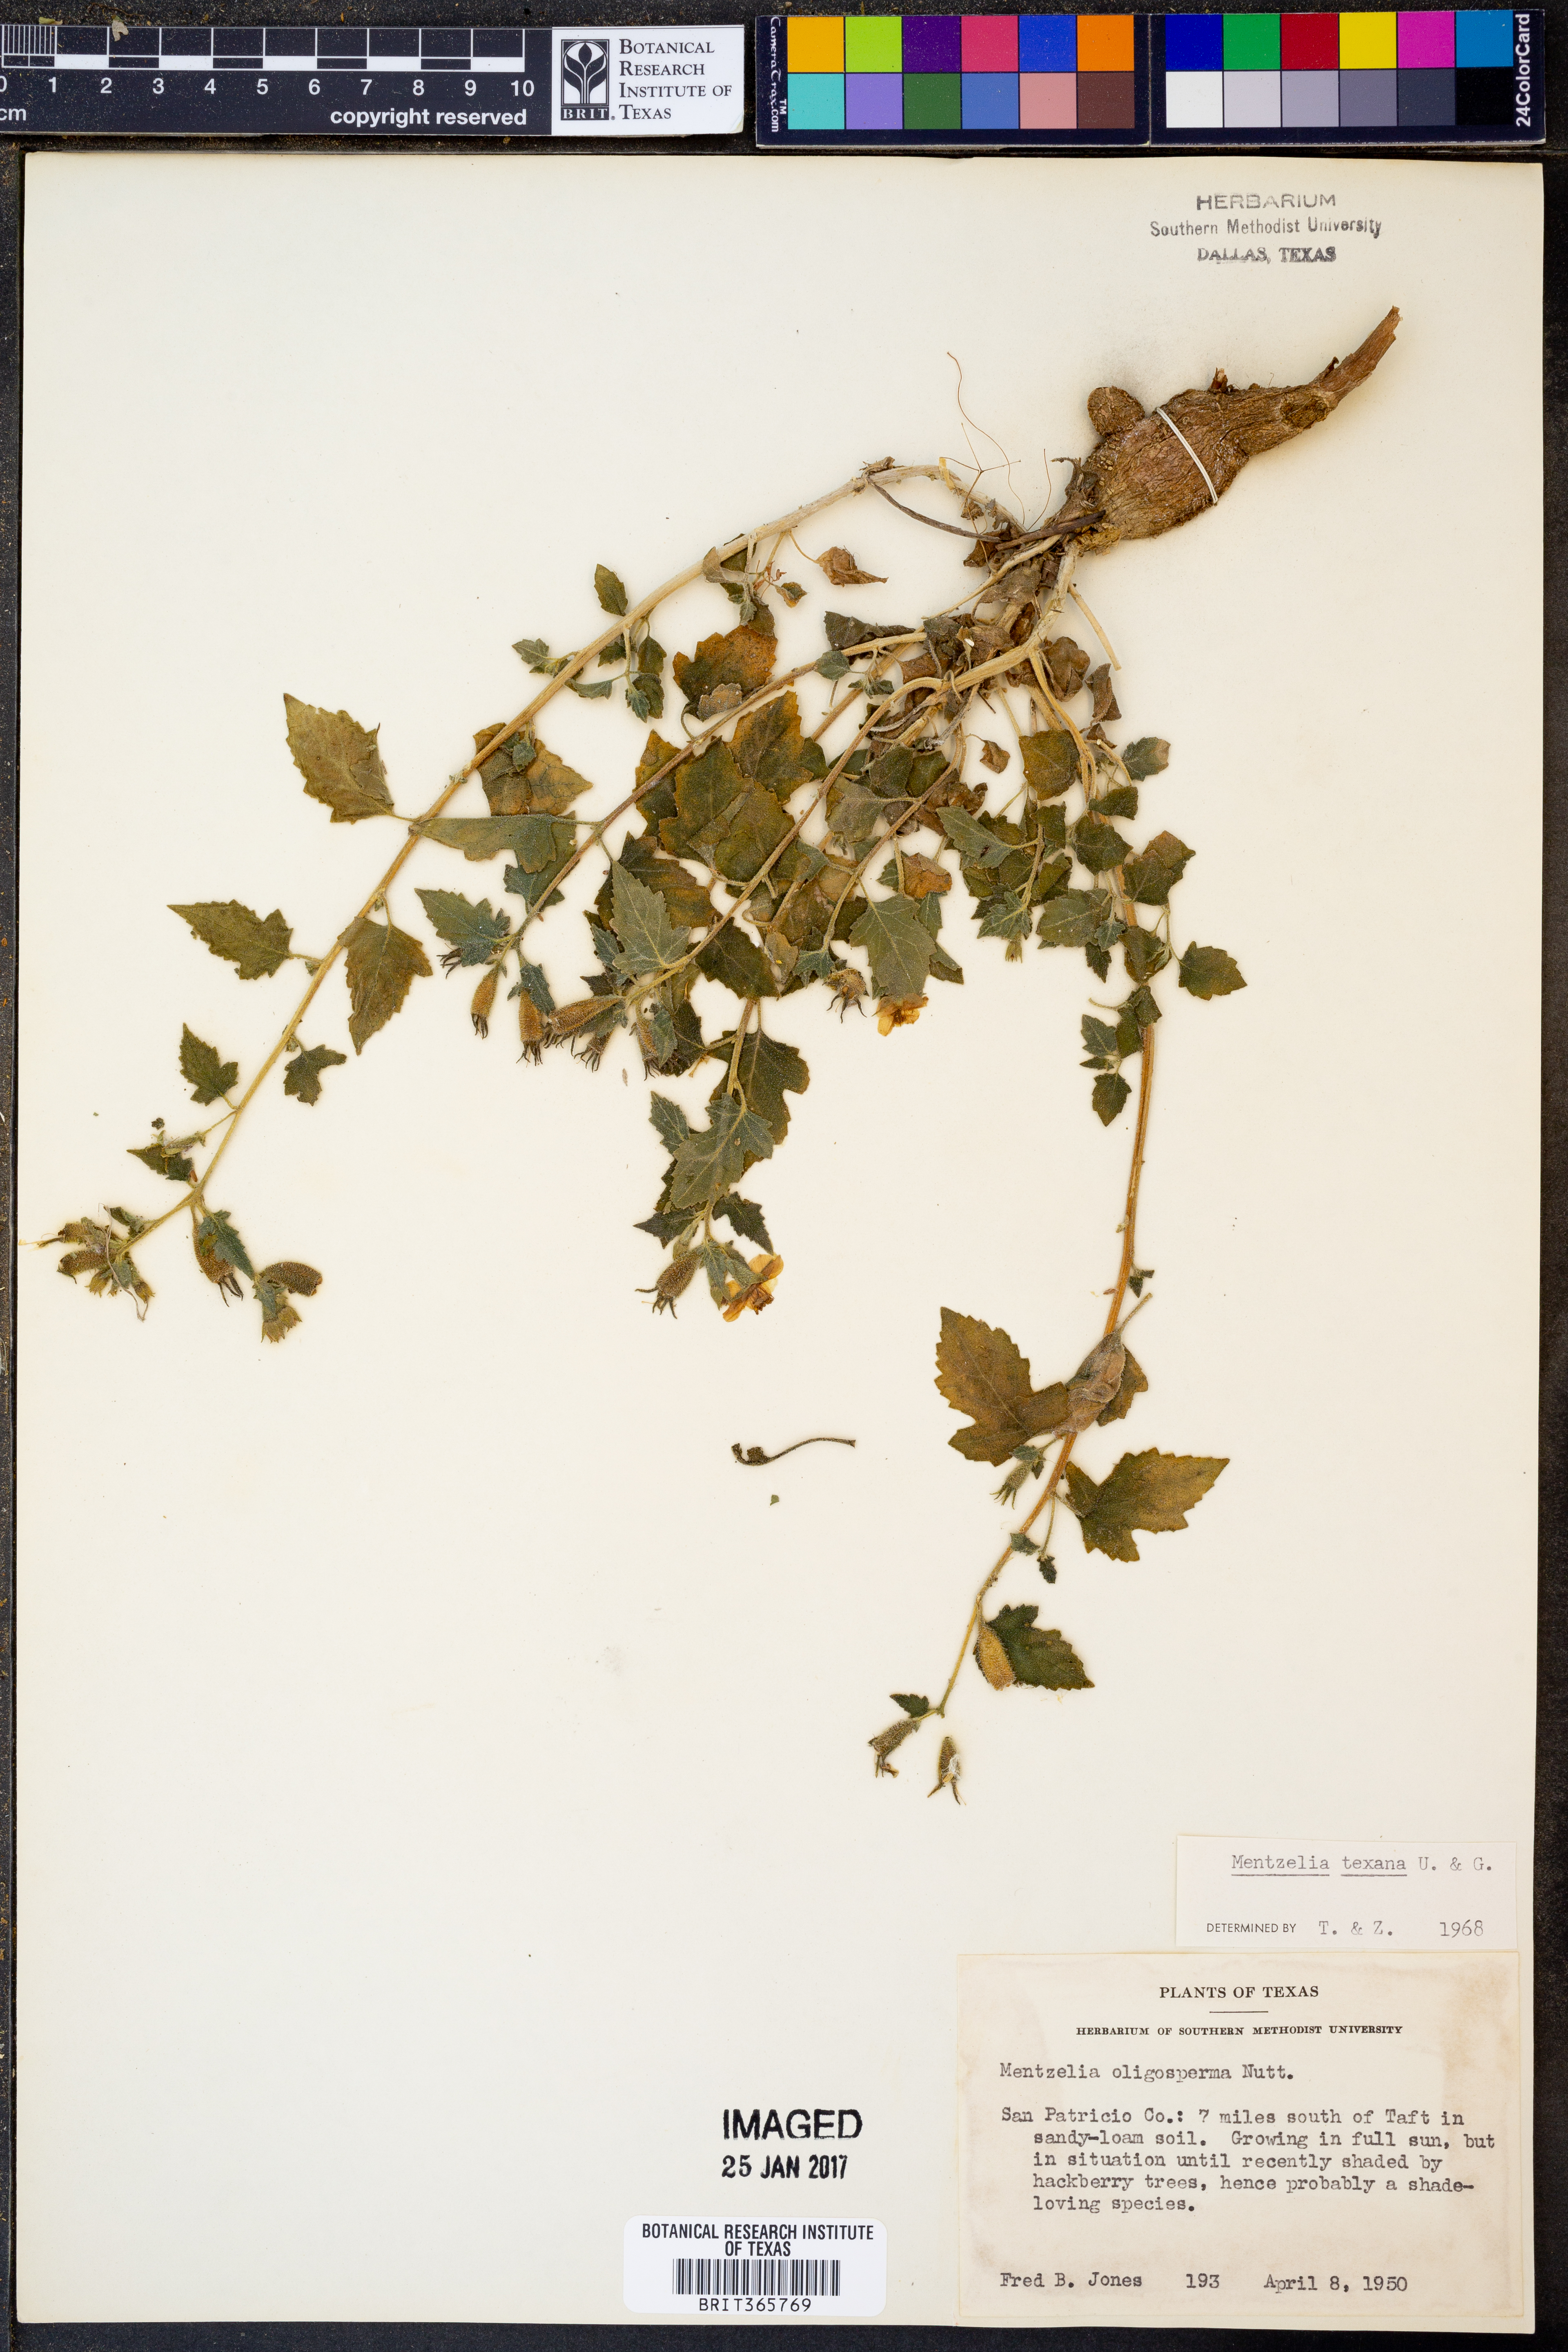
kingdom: Plantae
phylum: Tracheophyta
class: Magnoliopsida
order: Cornales
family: Loasaceae
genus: Mentzelia
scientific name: Mentzelia texana
